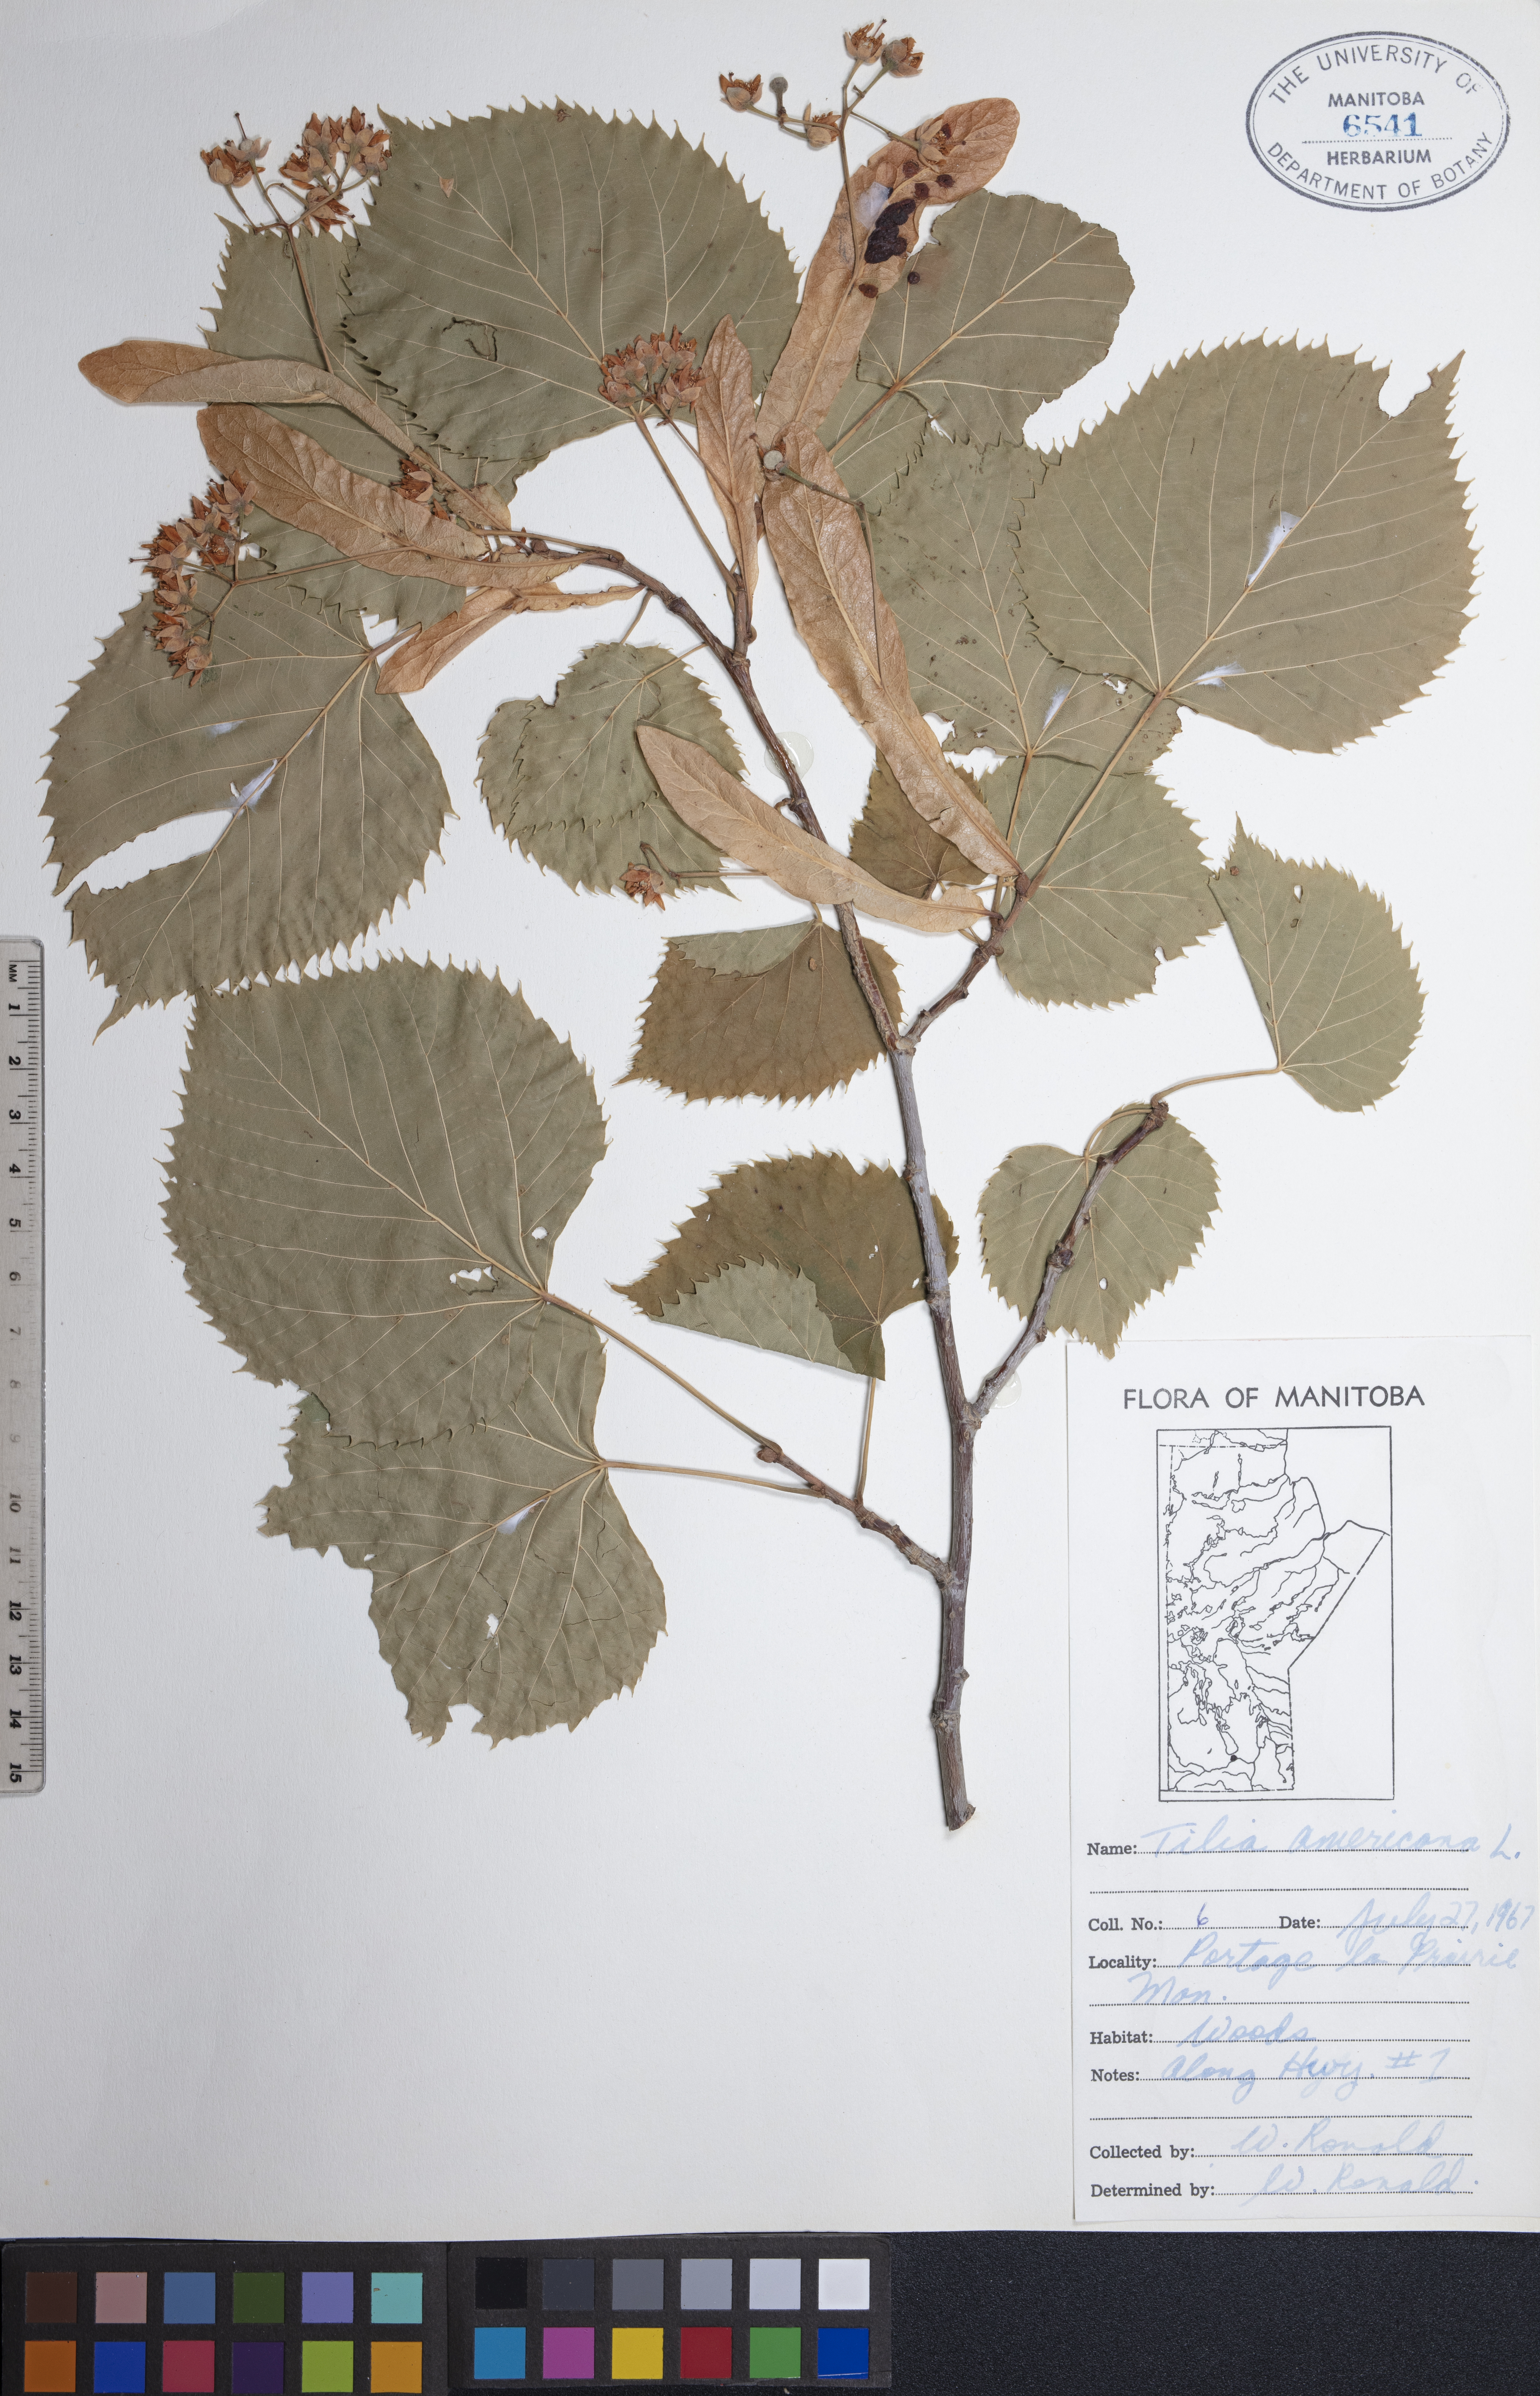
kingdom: Plantae
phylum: Tracheophyta
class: Magnoliopsida
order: Malvales
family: Malvaceae
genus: Tilia
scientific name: Tilia americana
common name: Basswood
